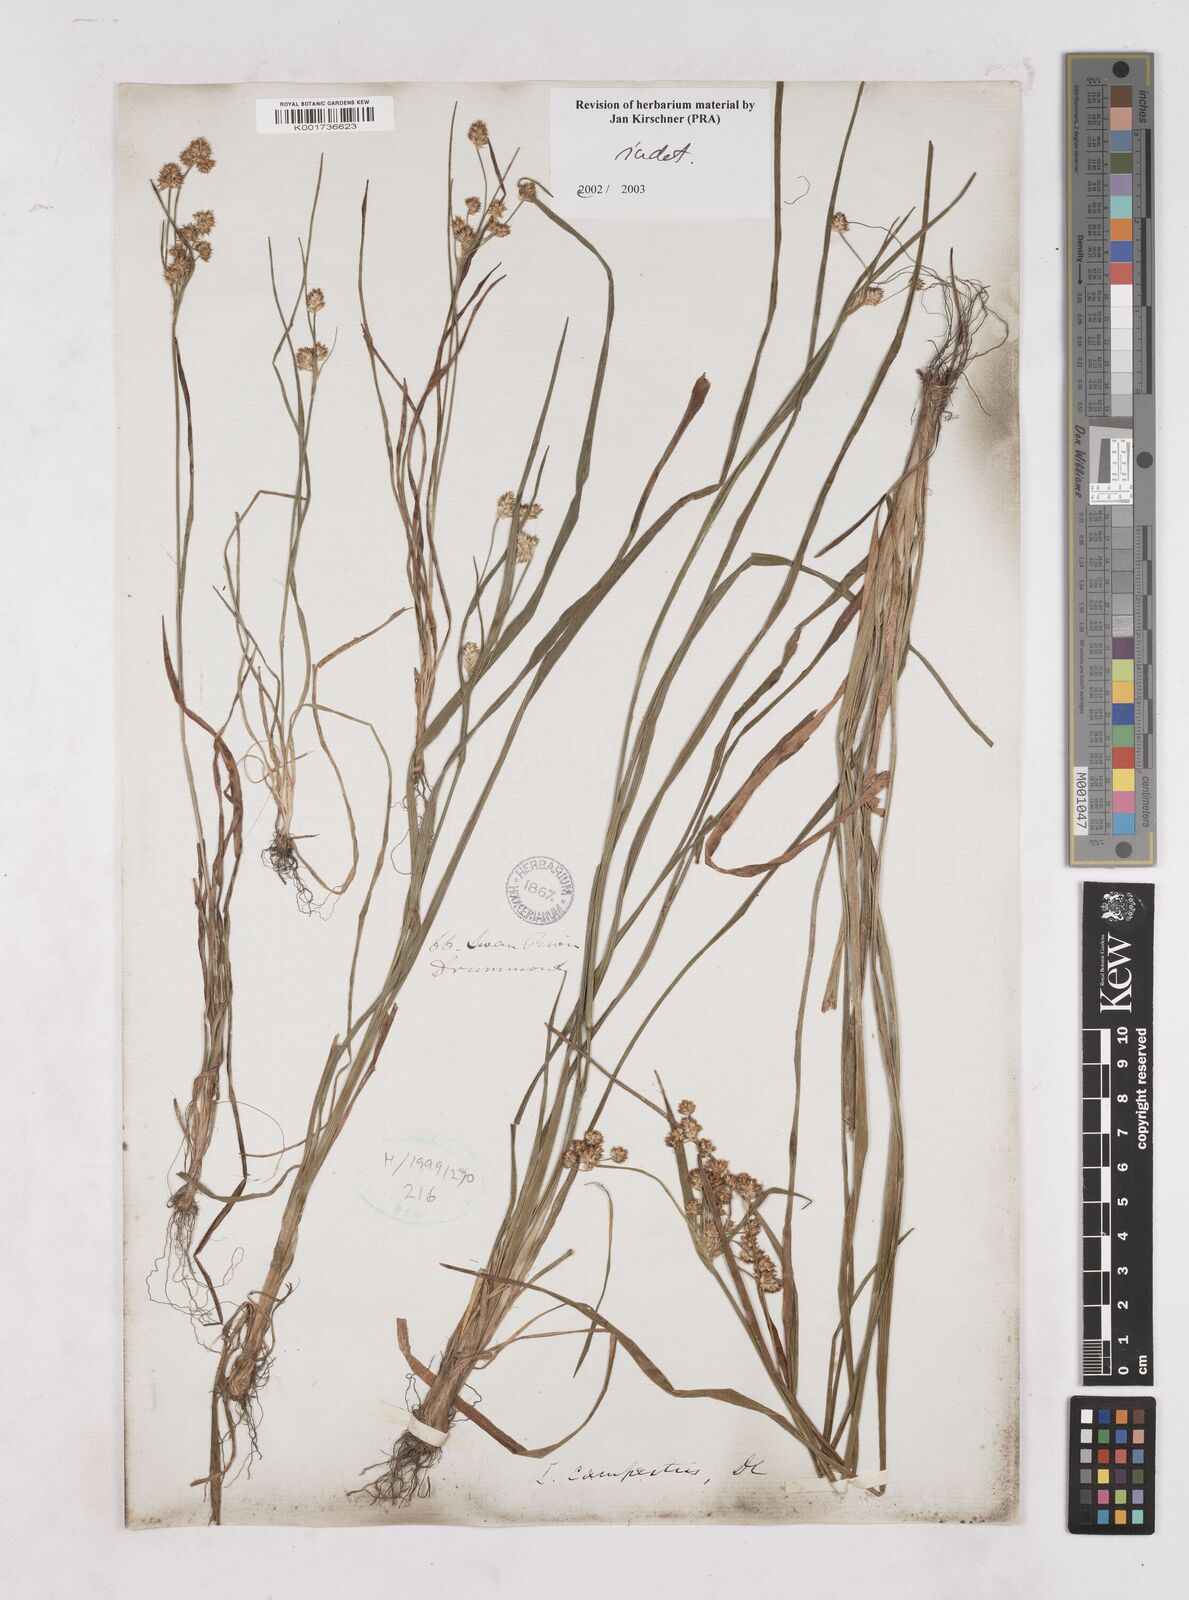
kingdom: Plantae
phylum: Tracheophyta
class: Liliopsida
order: Poales
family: Juncaceae
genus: Luzula
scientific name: Luzula
